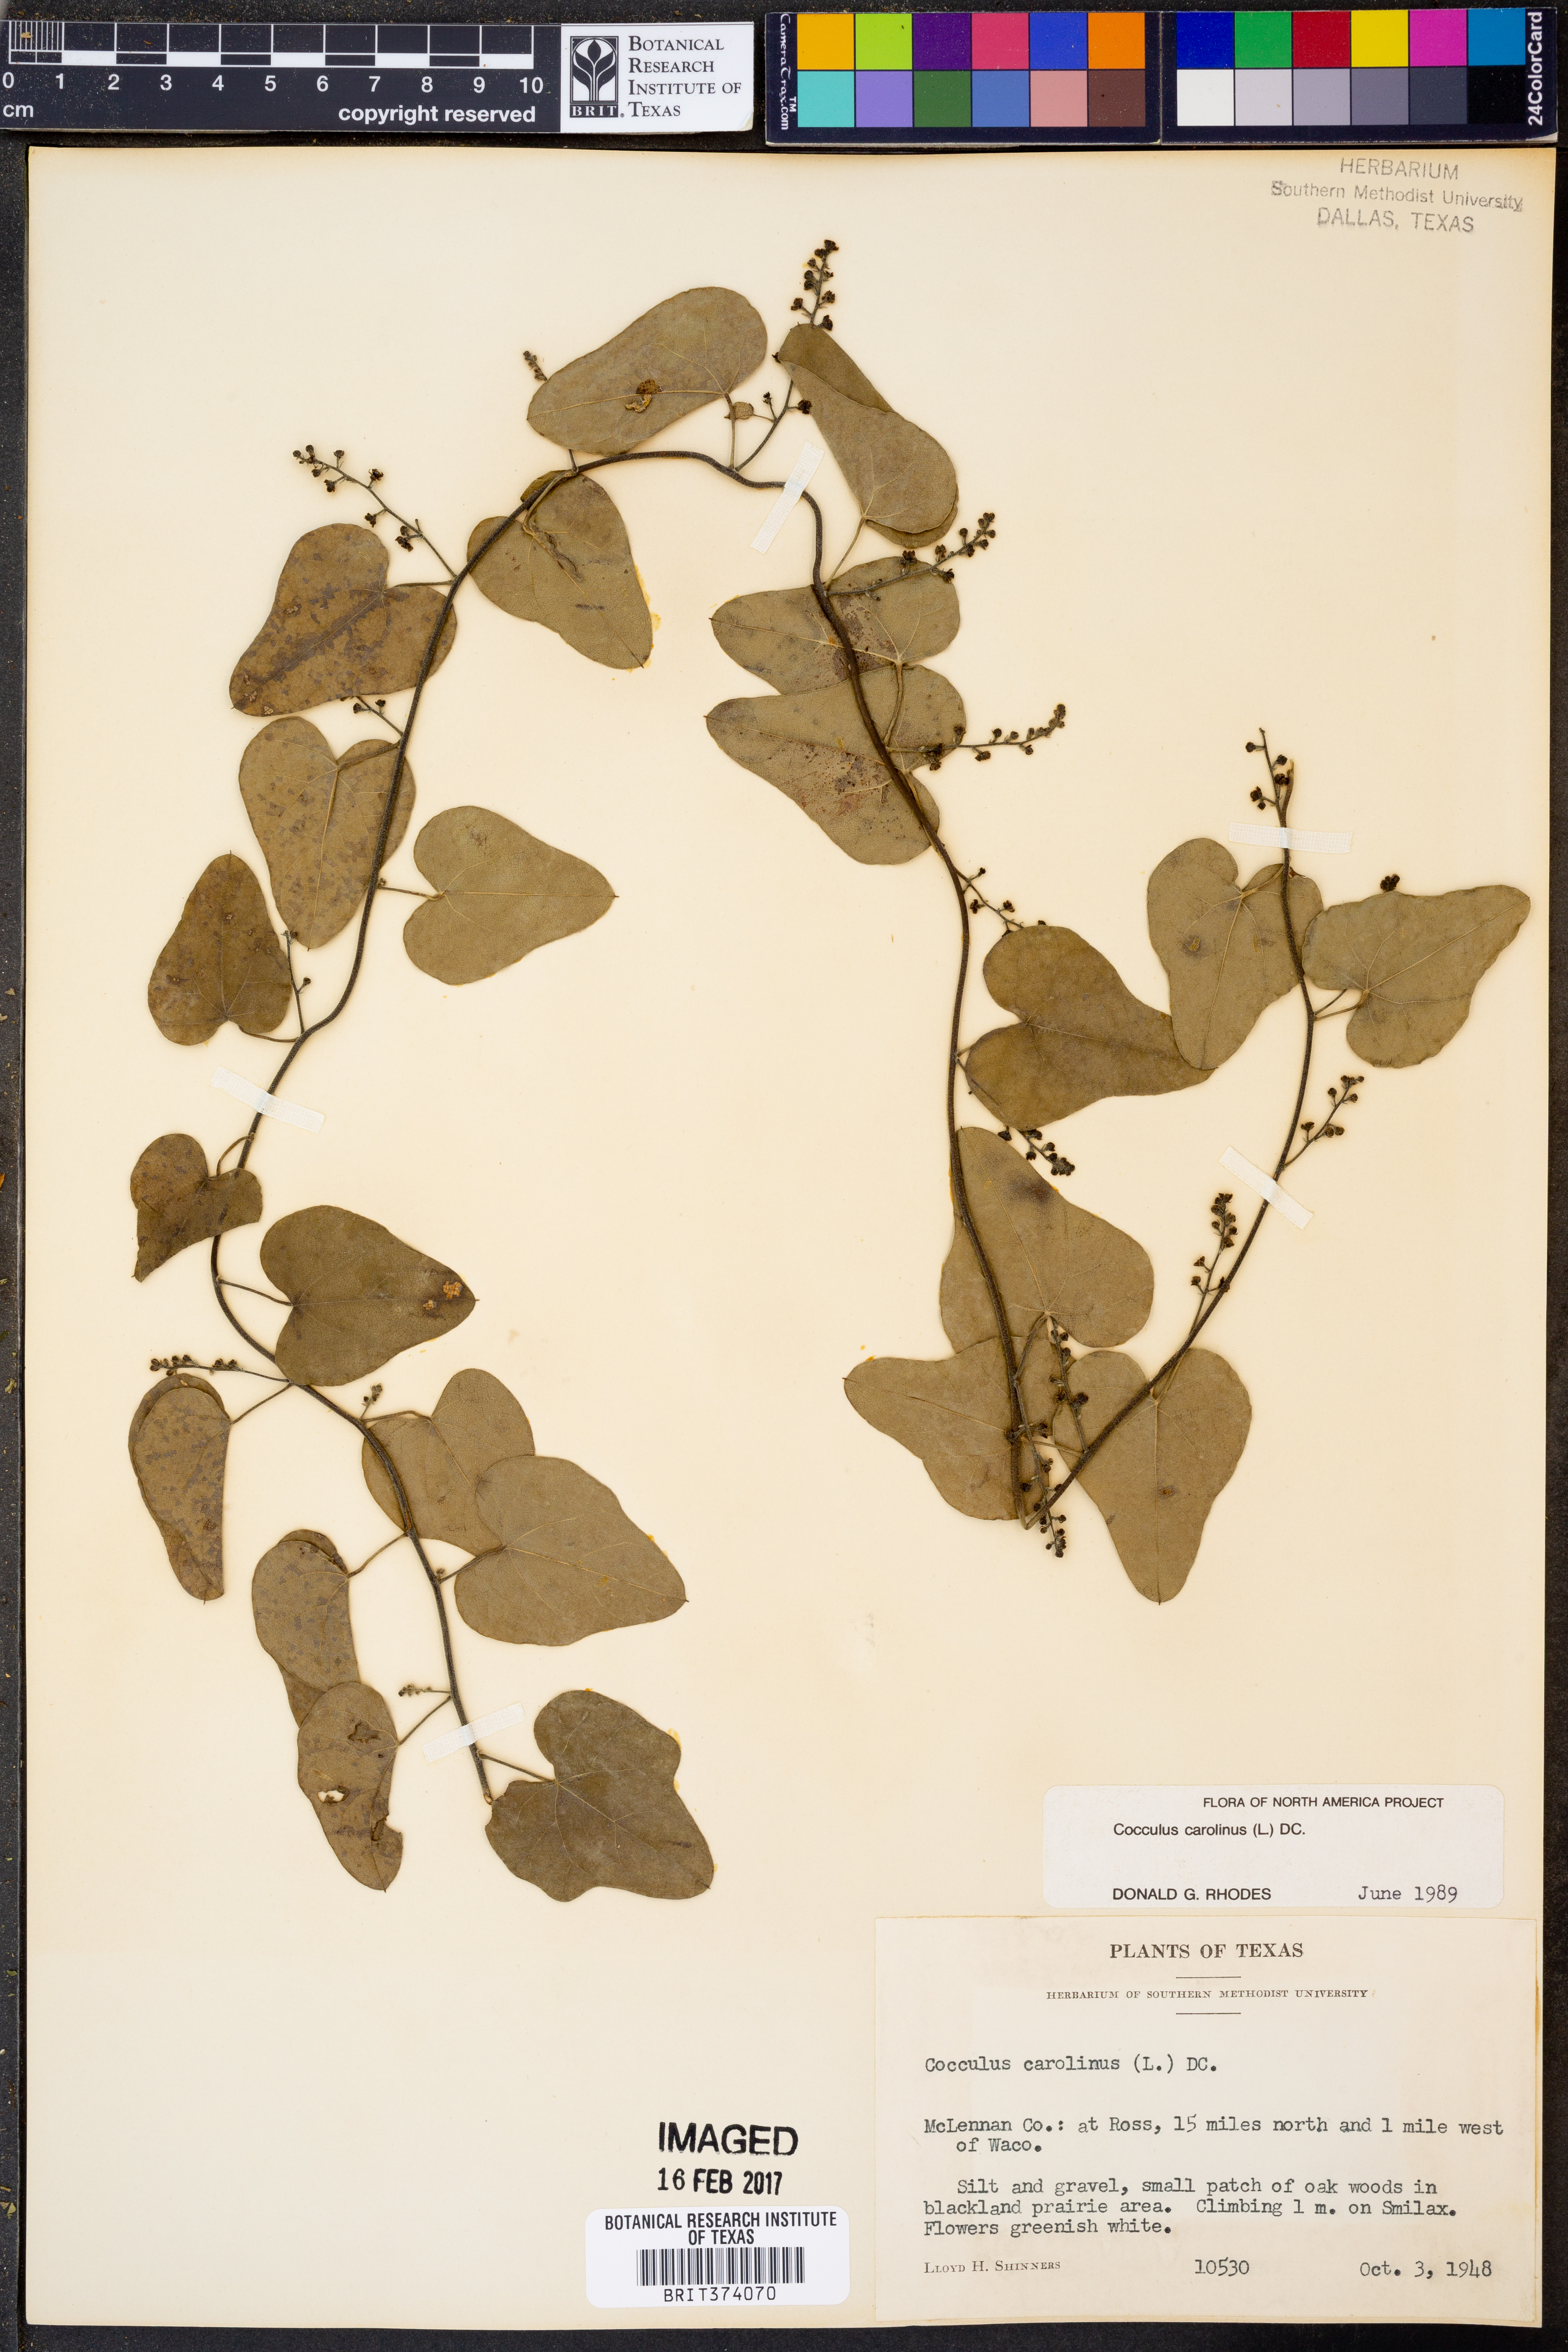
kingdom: Plantae
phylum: Tracheophyta
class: Magnoliopsida
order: Ranunculales
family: Menispermaceae
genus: Cocculus
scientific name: Cocculus carolinus
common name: Carolina moonseed
